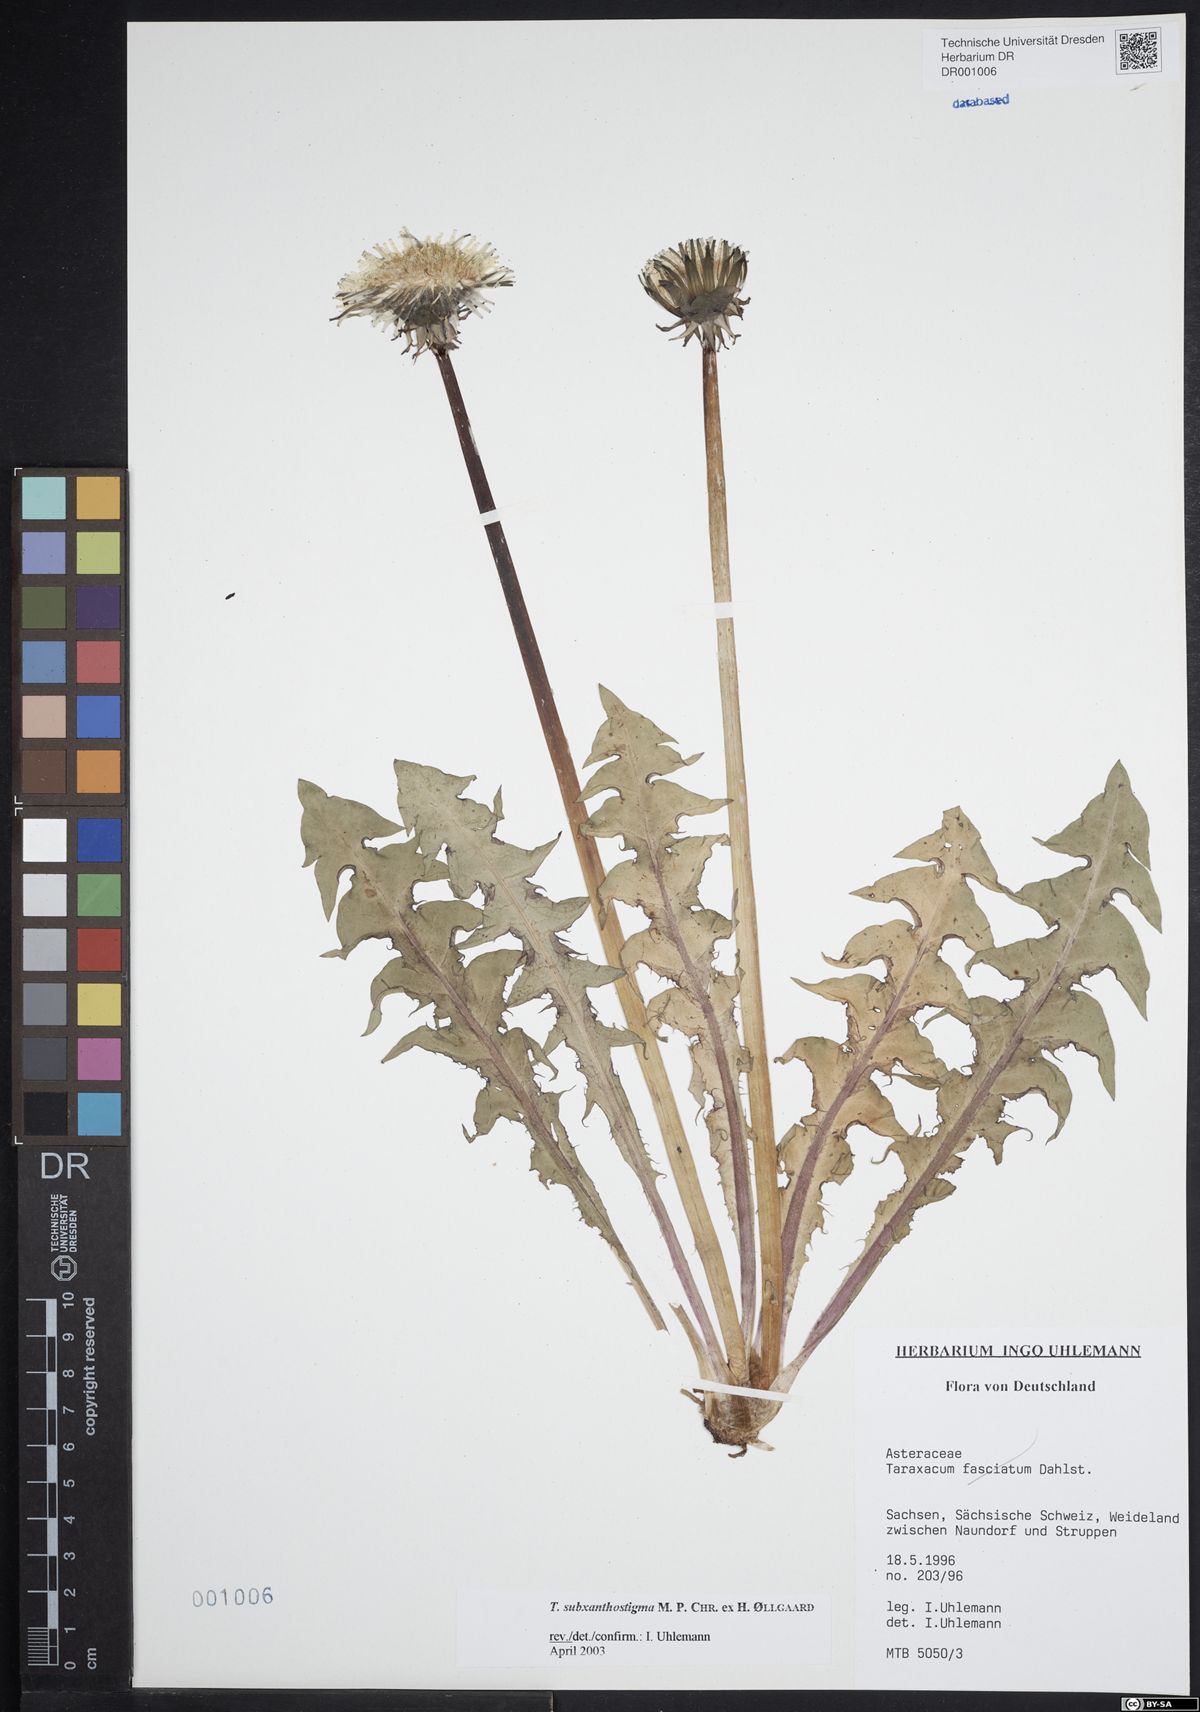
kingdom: Plantae
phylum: Tracheophyta
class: Magnoliopsida
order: Asterales
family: Asteraceae
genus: Taraxacum
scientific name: Taraxacum subxanthostigma
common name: Purple-stalked dandelion
